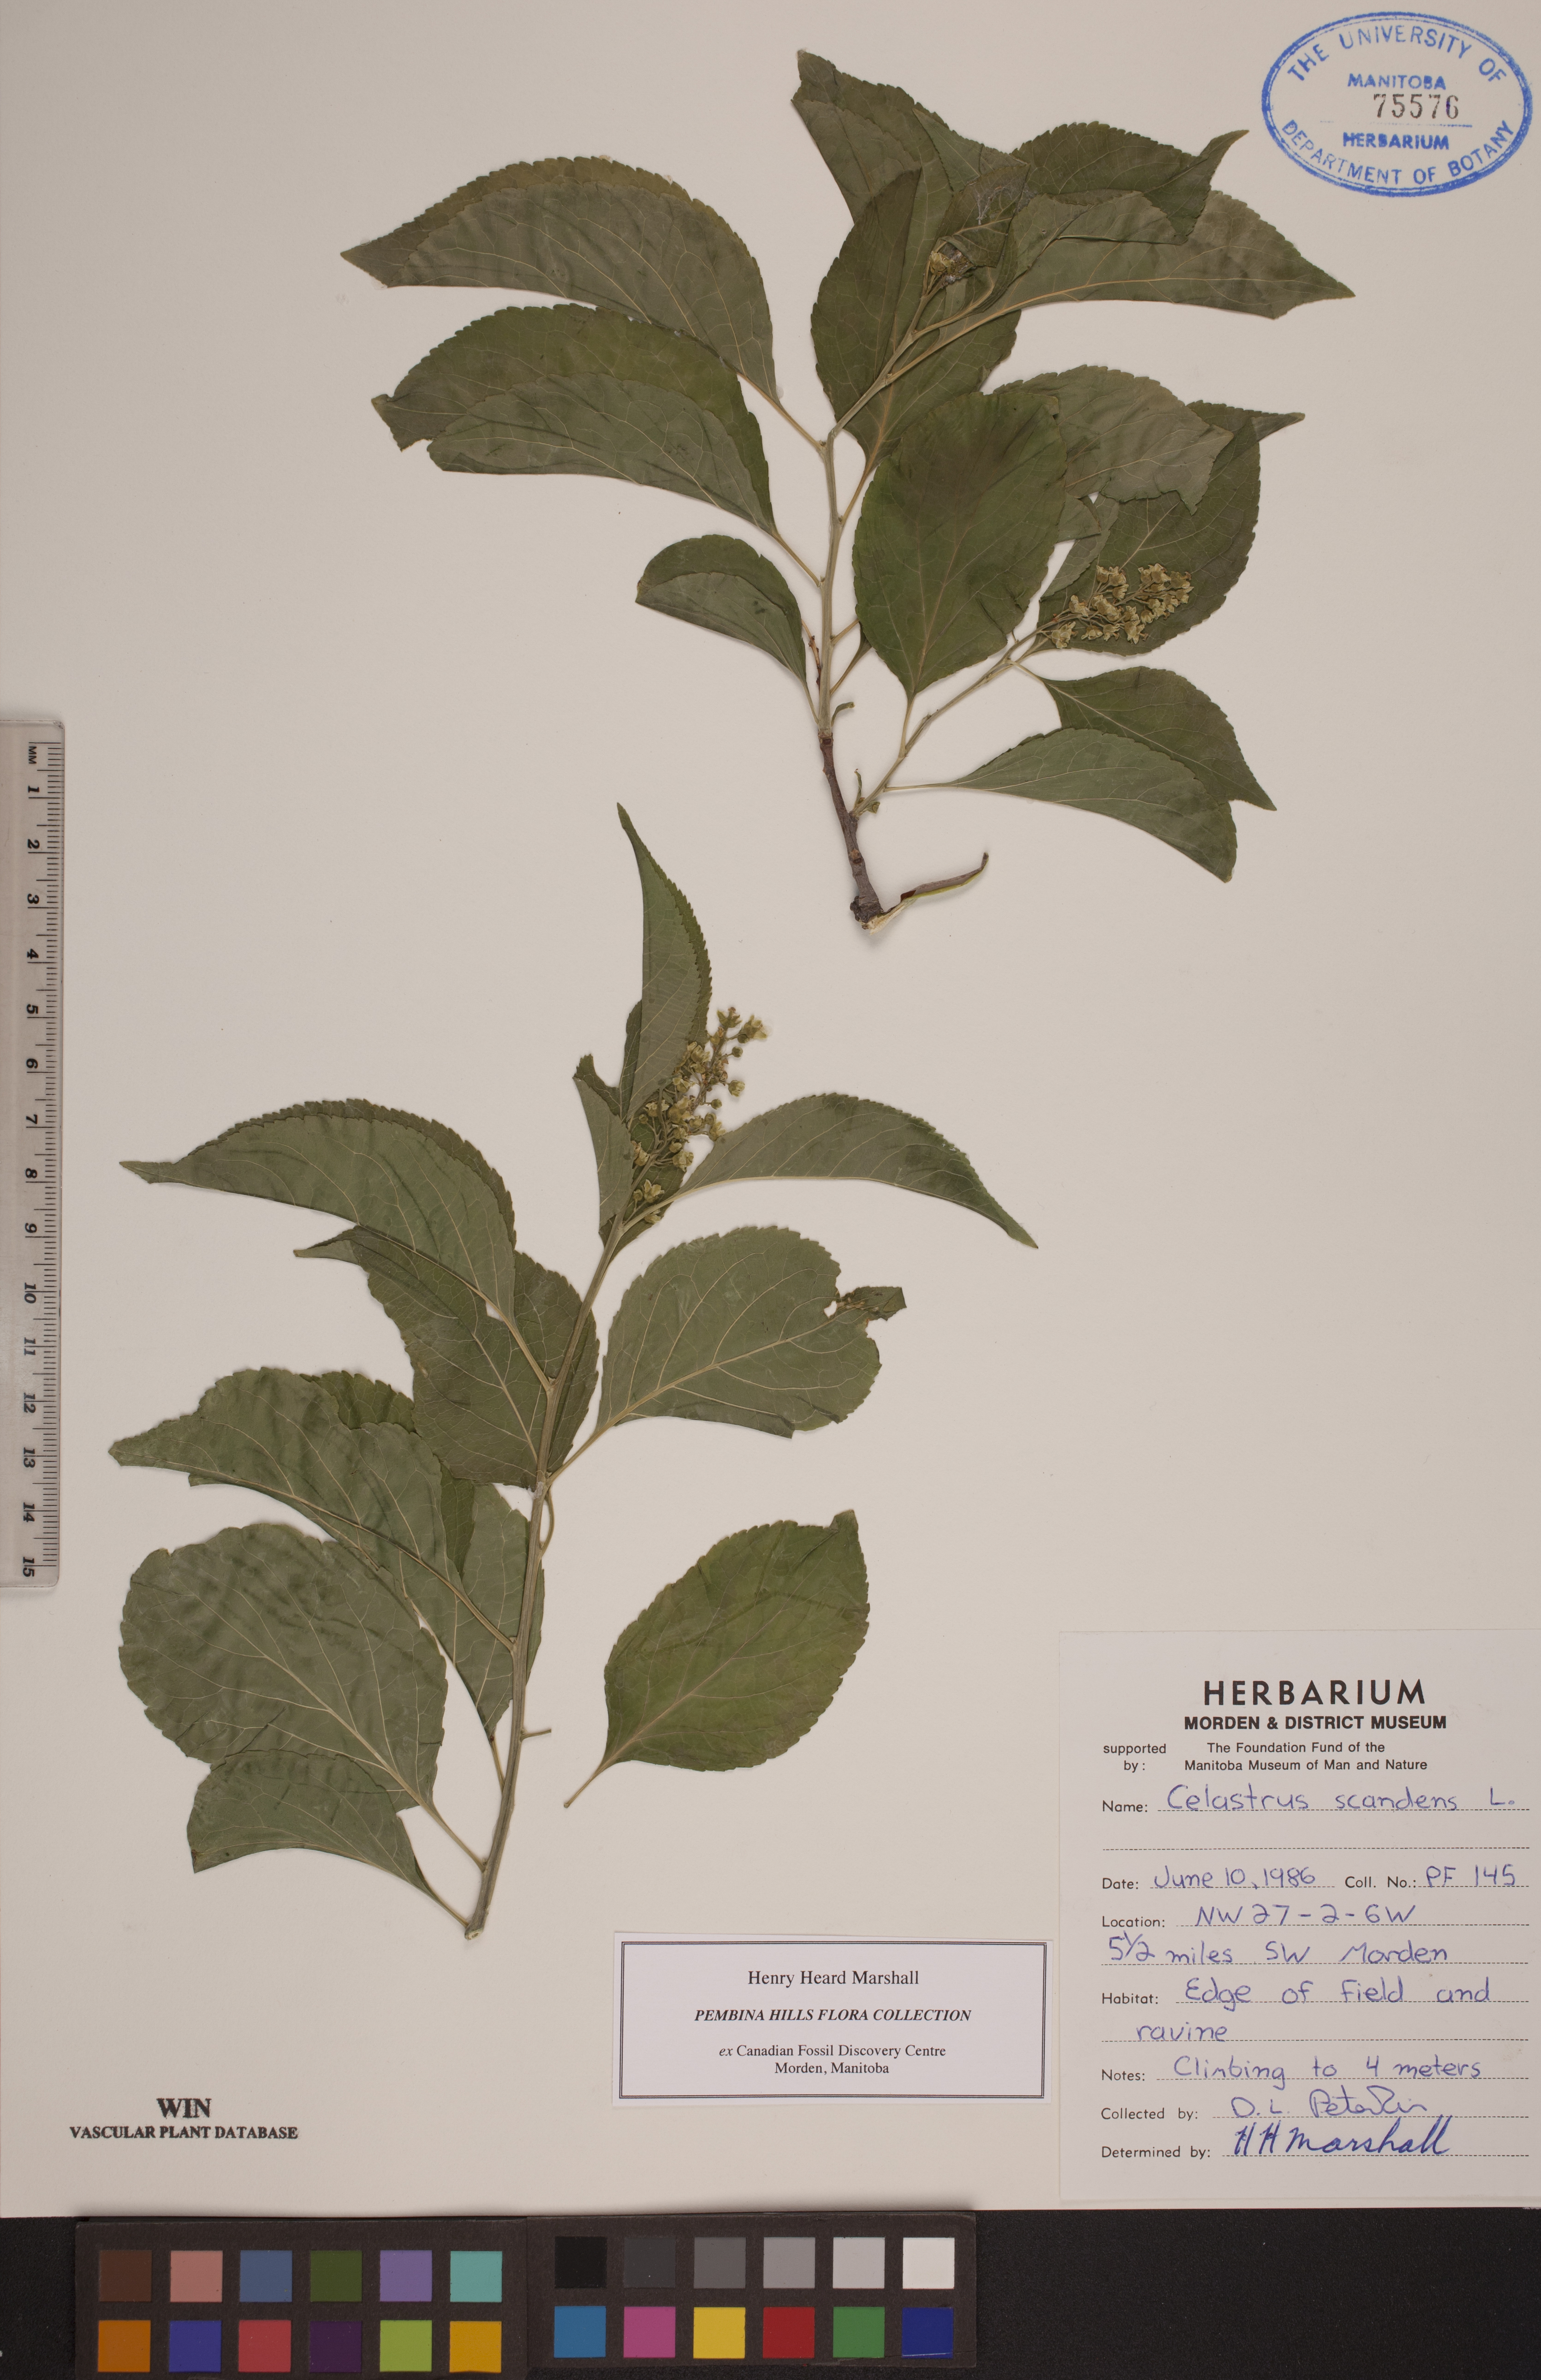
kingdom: Plantae
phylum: Tracheophyta
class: Magnoliopsida
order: Celastrales
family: Celastraceae
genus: Celastrus
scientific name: Celastrus scandens
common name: American bittersweet
